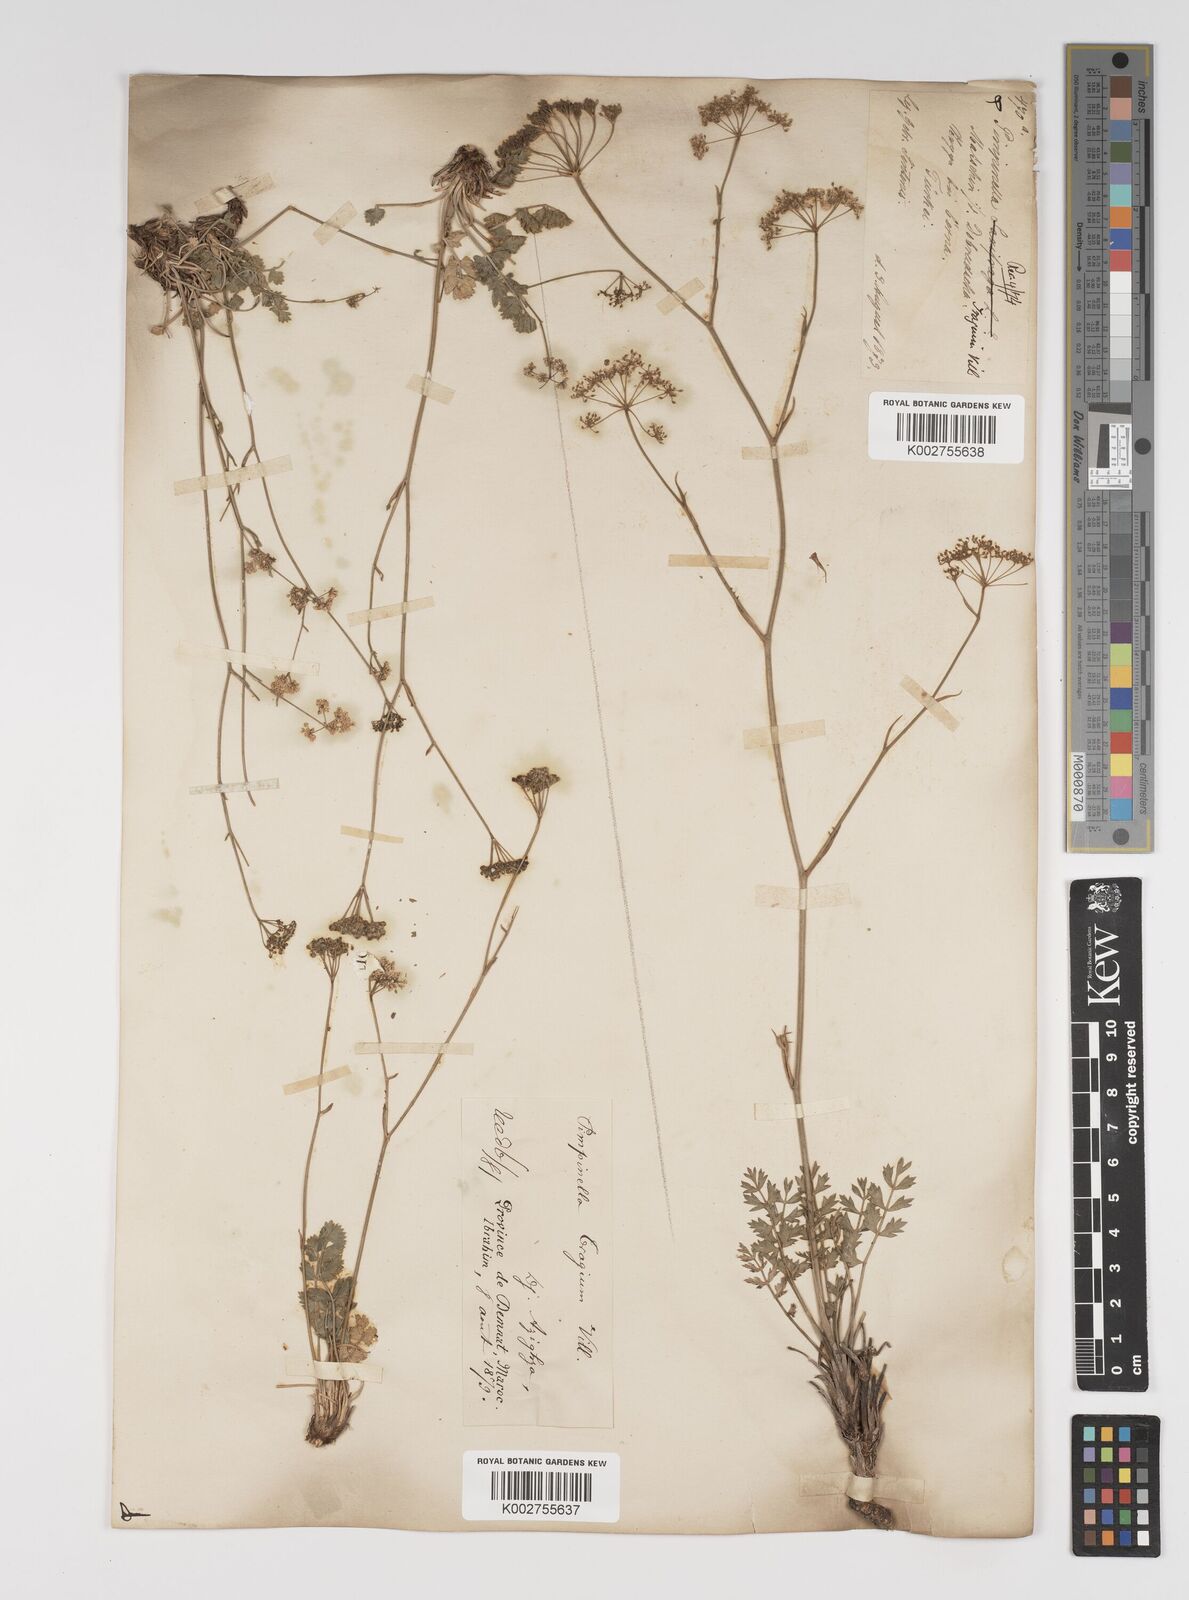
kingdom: Plantae
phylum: Tracheophyta
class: Magnoliopsida
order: Apiales
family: Apiaceae
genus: Pimpinella
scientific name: Pimpinella tragium
